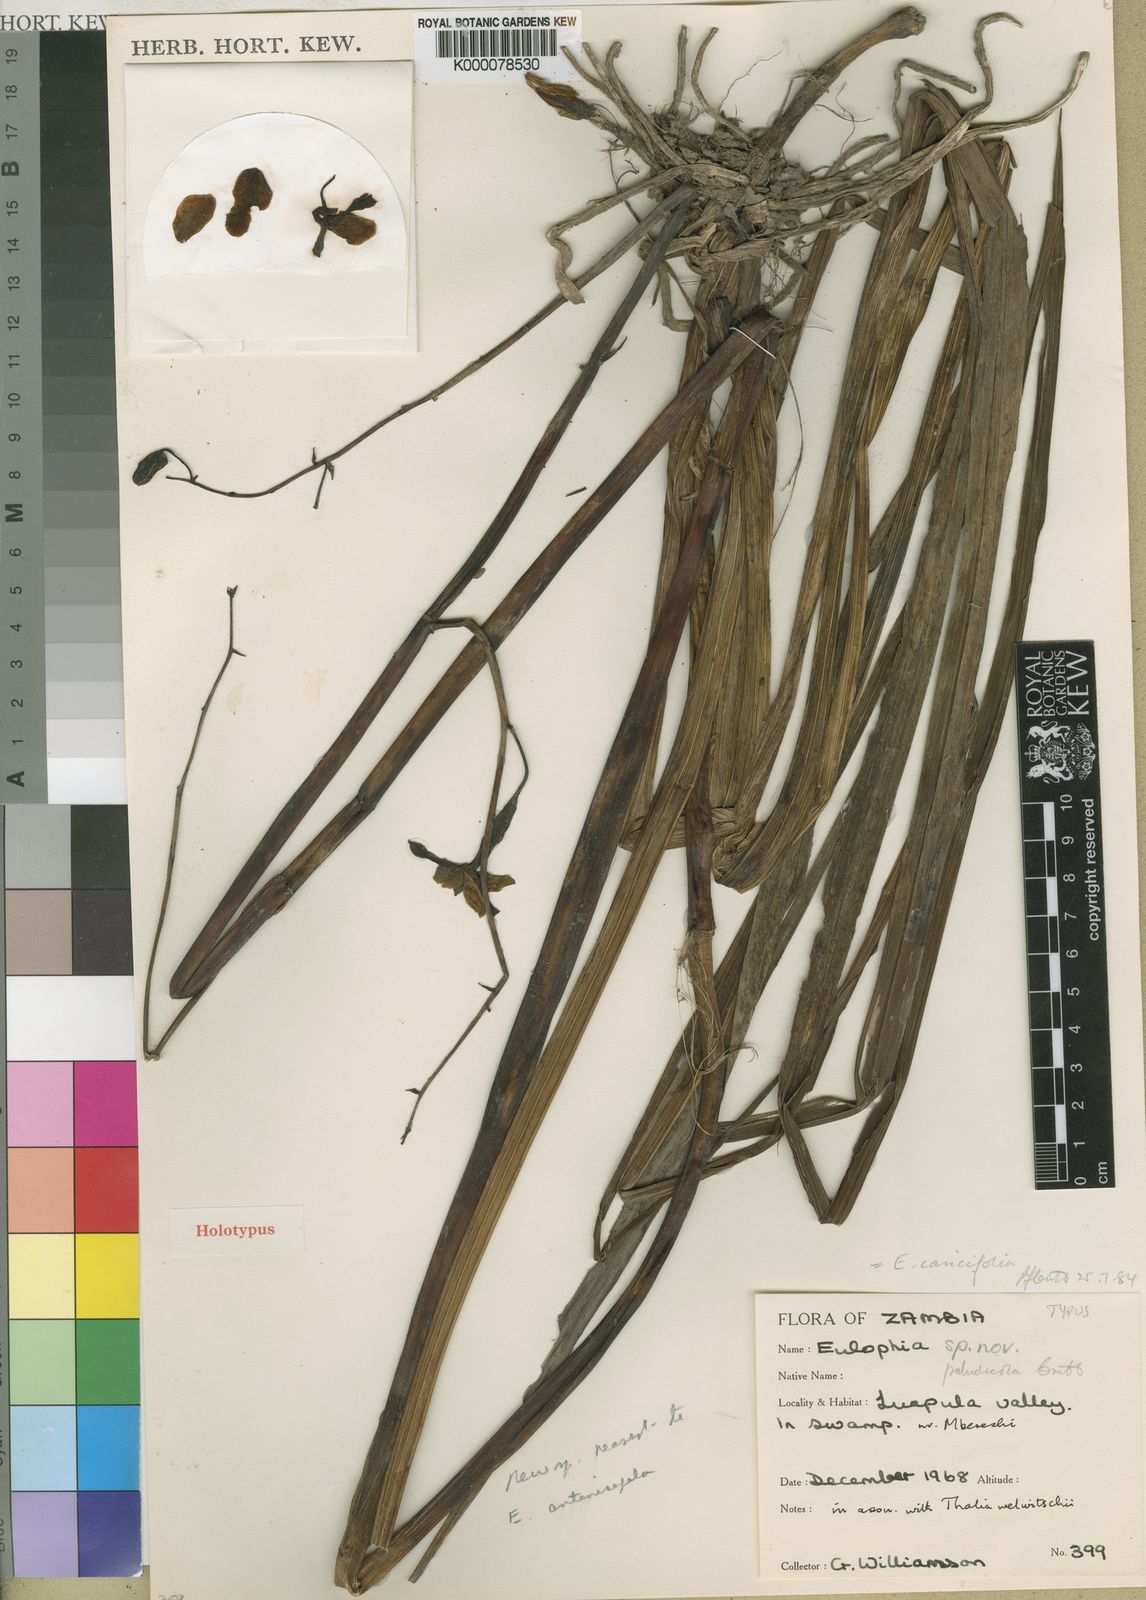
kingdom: Plantae
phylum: Tracheophyta
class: Liliopsida
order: Asparagales
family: Orchidaceae
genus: Eulophia
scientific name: Eulophia caricifolia
